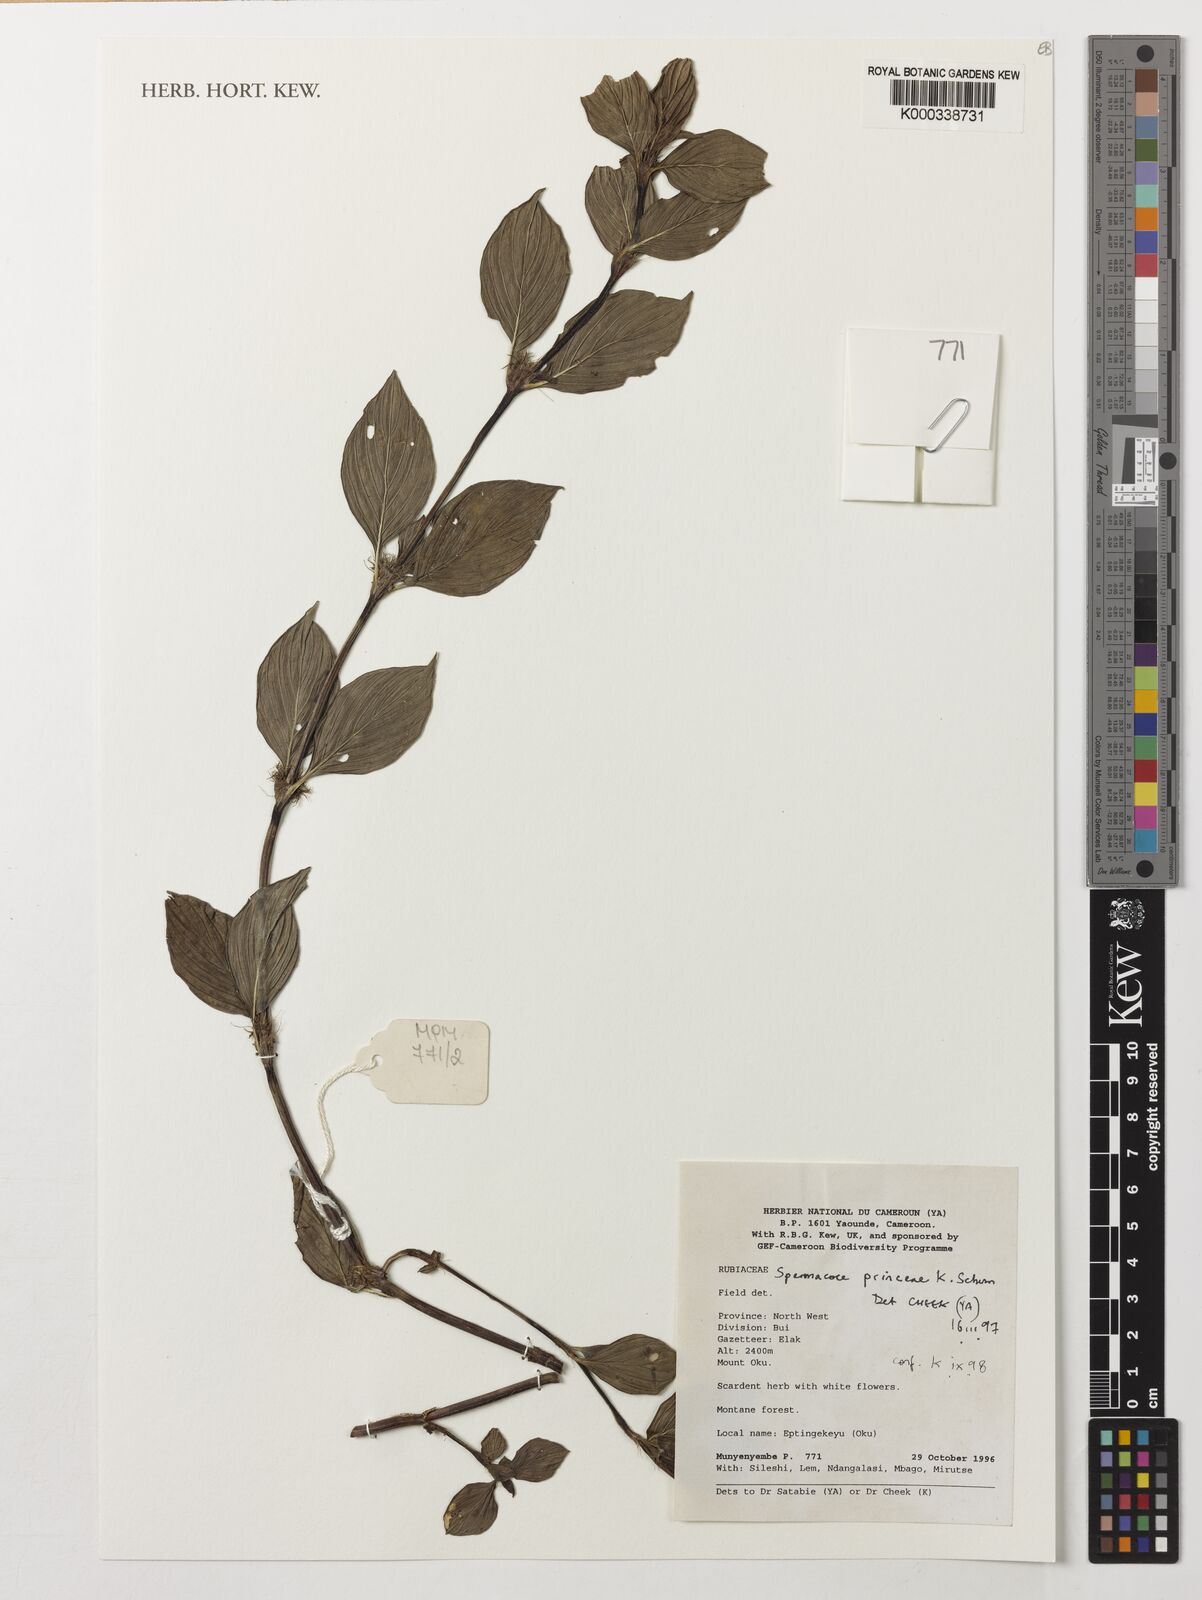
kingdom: Plantae
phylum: Tracheophyta
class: Magnoliopsida
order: Gentianales
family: Rubiaceae
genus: Spermacoce
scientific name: Spermacoce princeae
